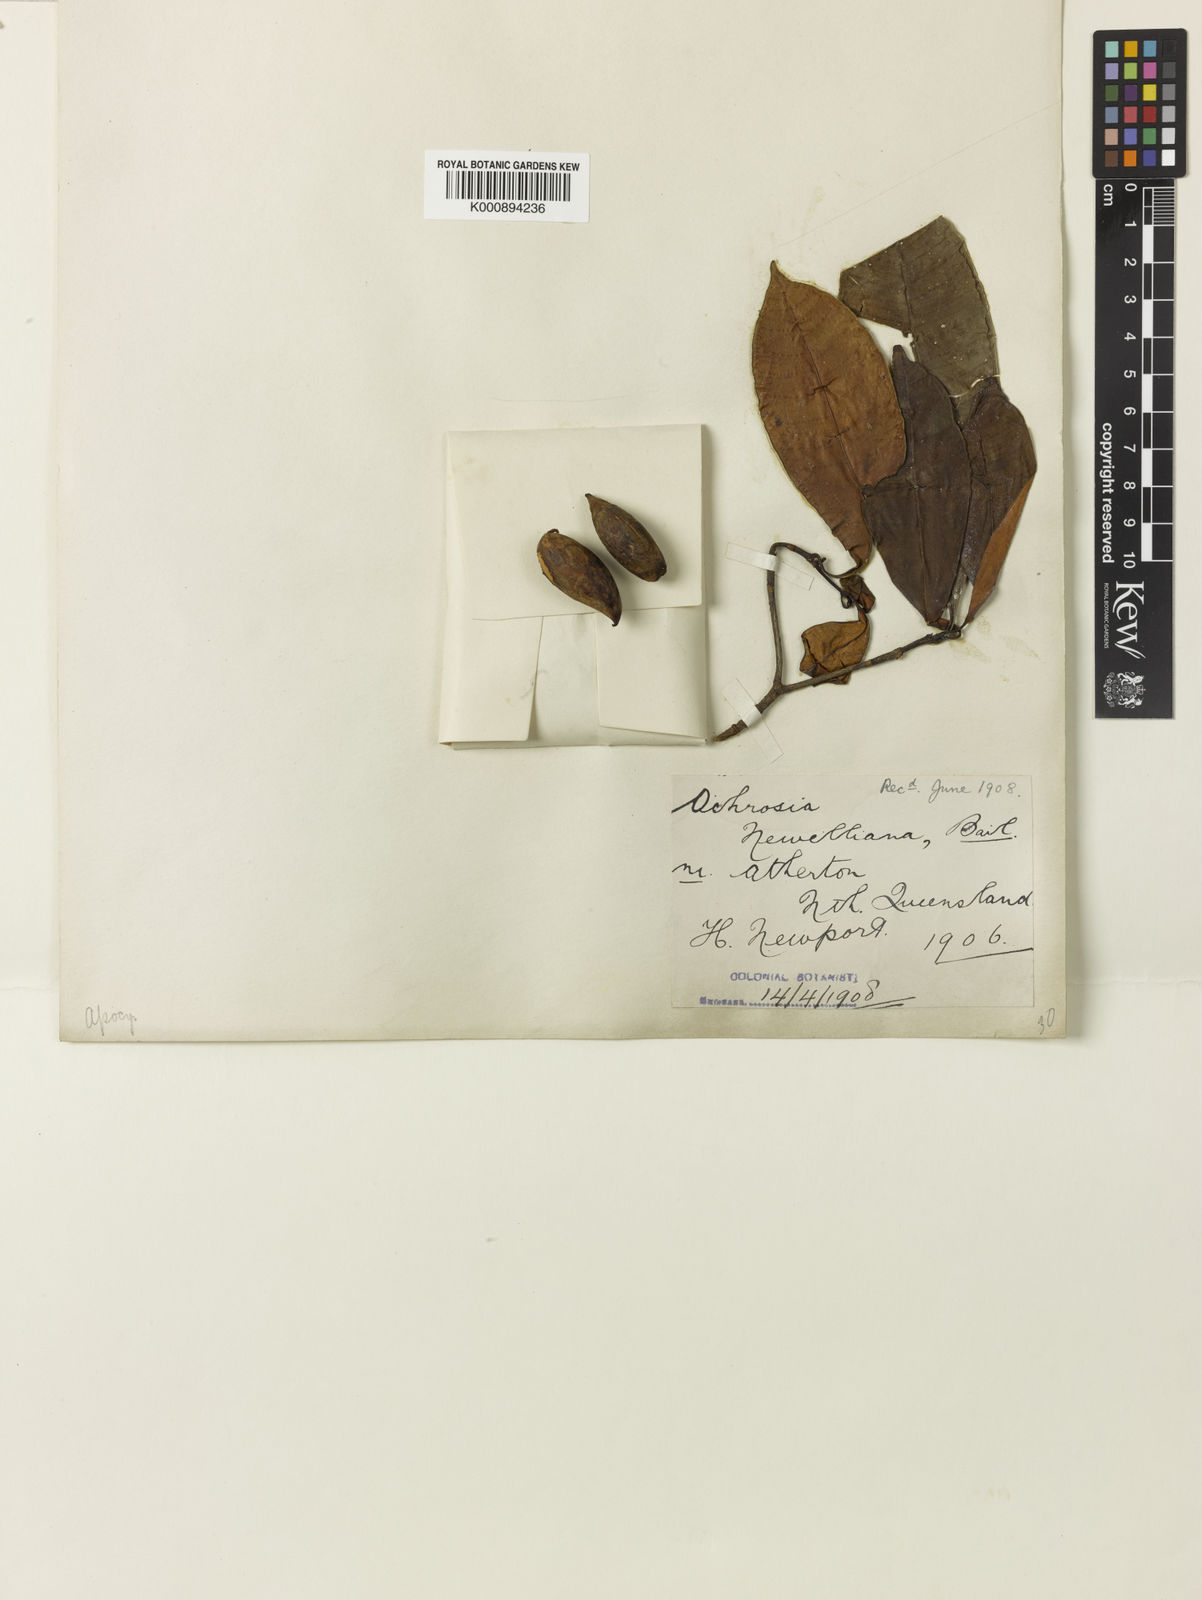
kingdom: Plantae
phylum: Tracheophyta
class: Magnoliopsida
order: Gentianales
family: Apocynaceae
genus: Ochrosia
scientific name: Ochrosia poweri
